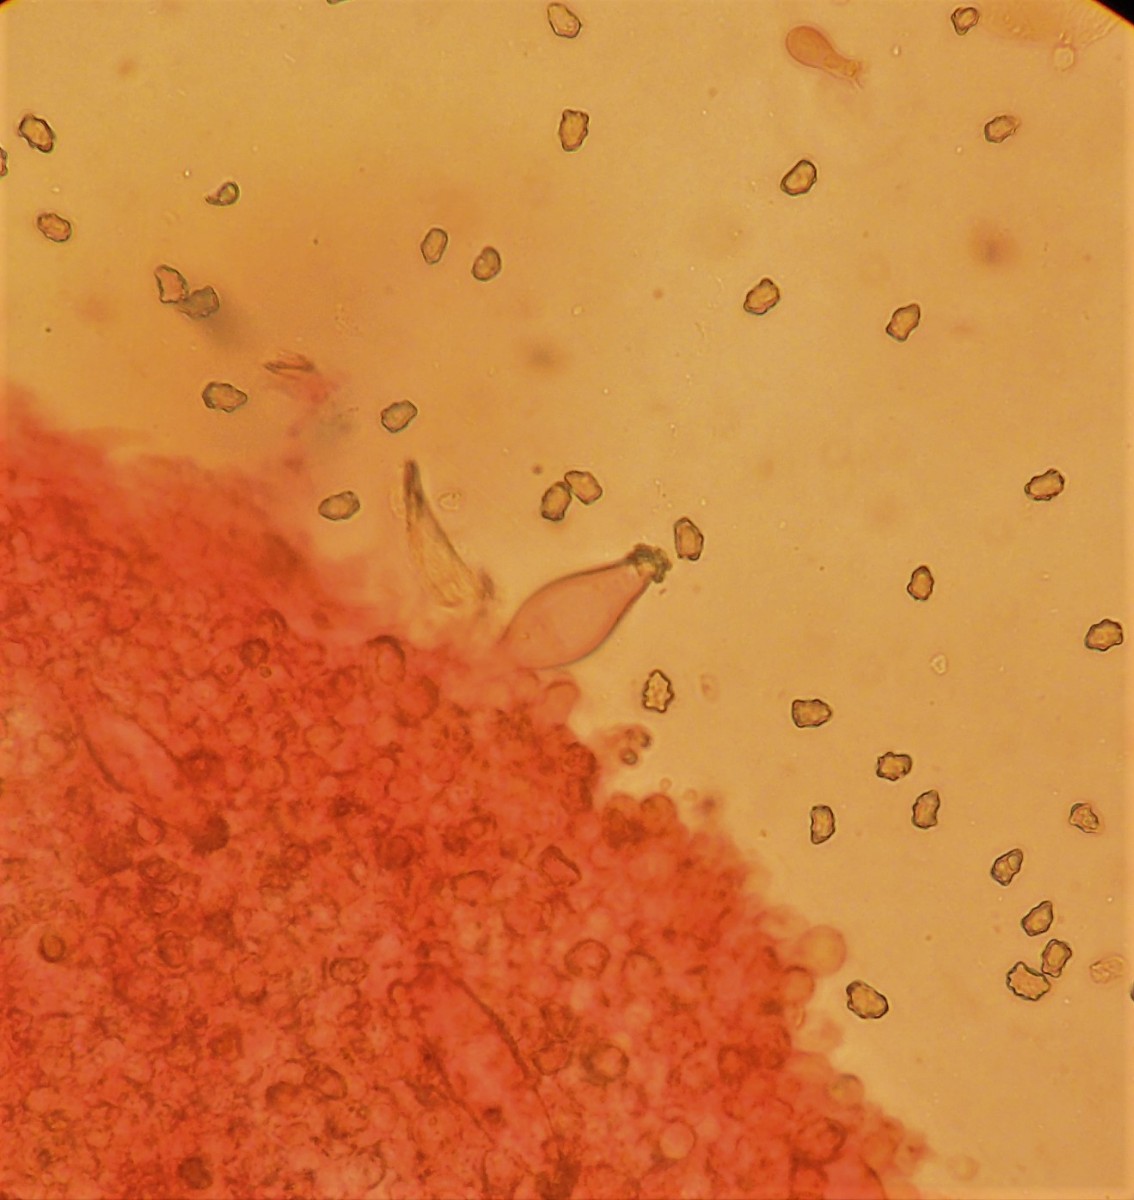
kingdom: Fungi
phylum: Basidiomycota
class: Agaricomycetes
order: Agaricales
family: Inocybaceae
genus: Inocybe
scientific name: Inocybe curvipes
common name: plæne-trævlhat
